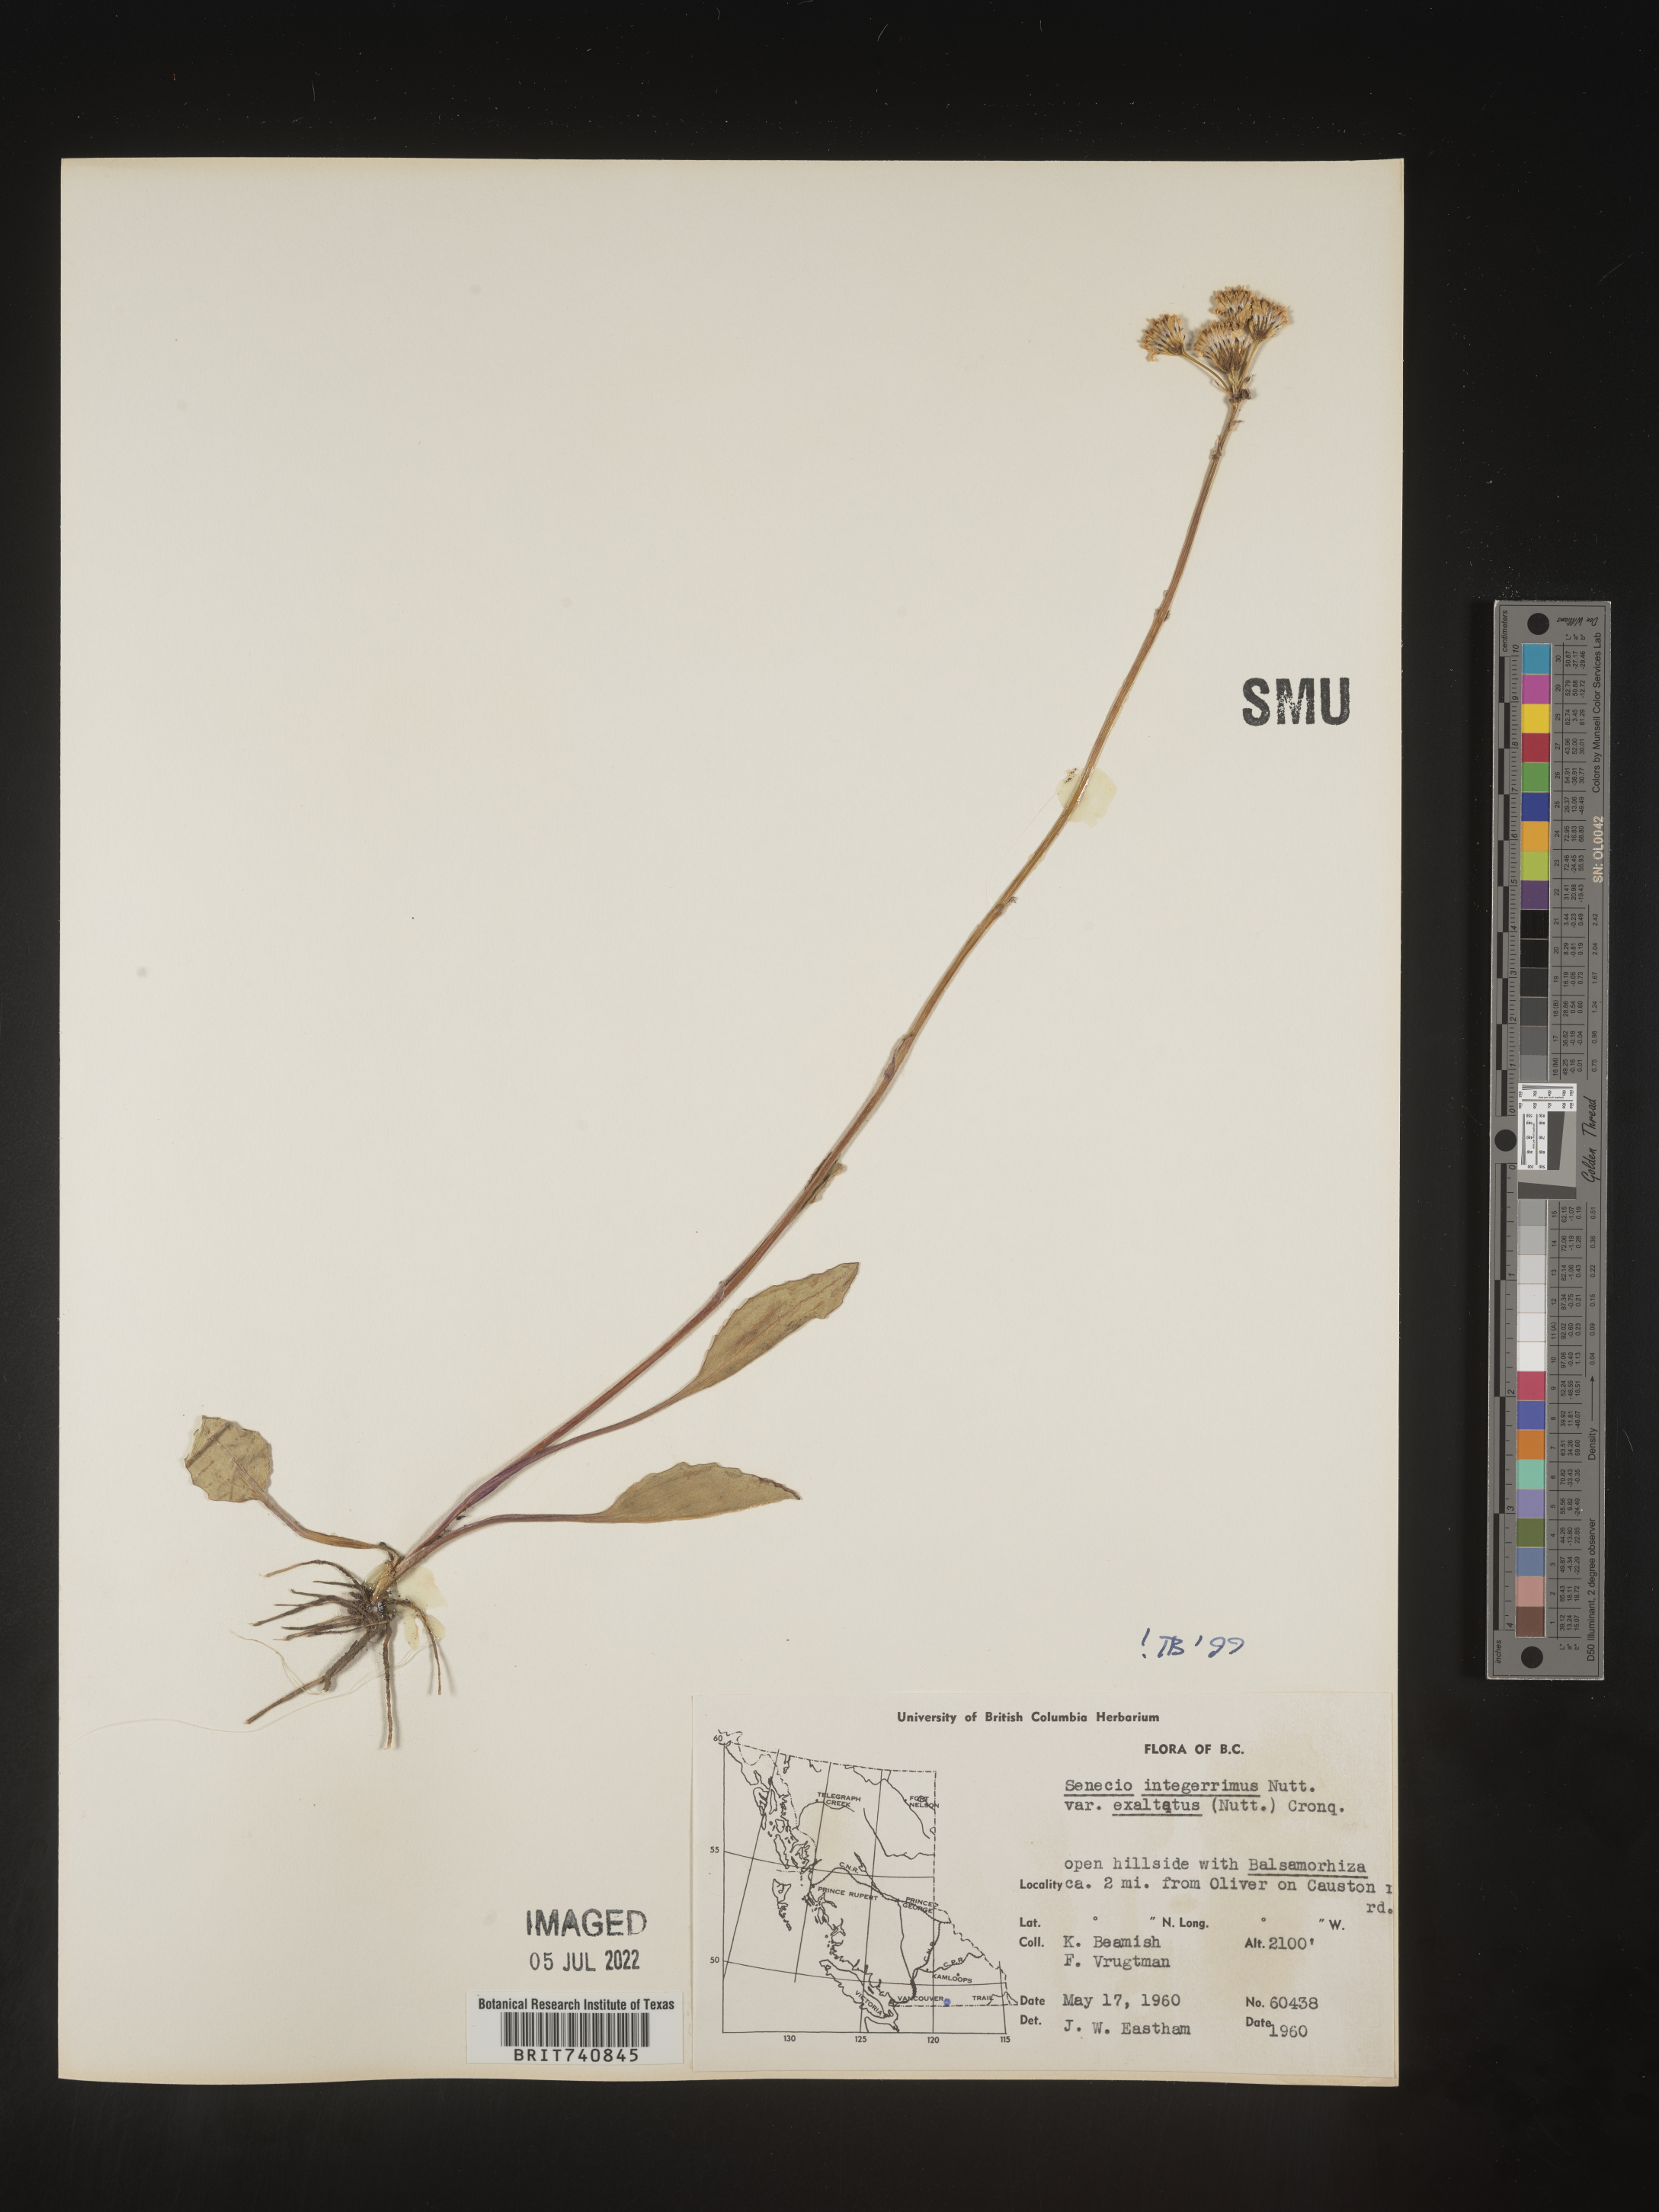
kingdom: Plantae
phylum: Tracheophyta
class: Magnoliopsida
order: Asterales
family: Asteraceae
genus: Senecio
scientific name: Senecio integerrimus
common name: Gaugeplant
